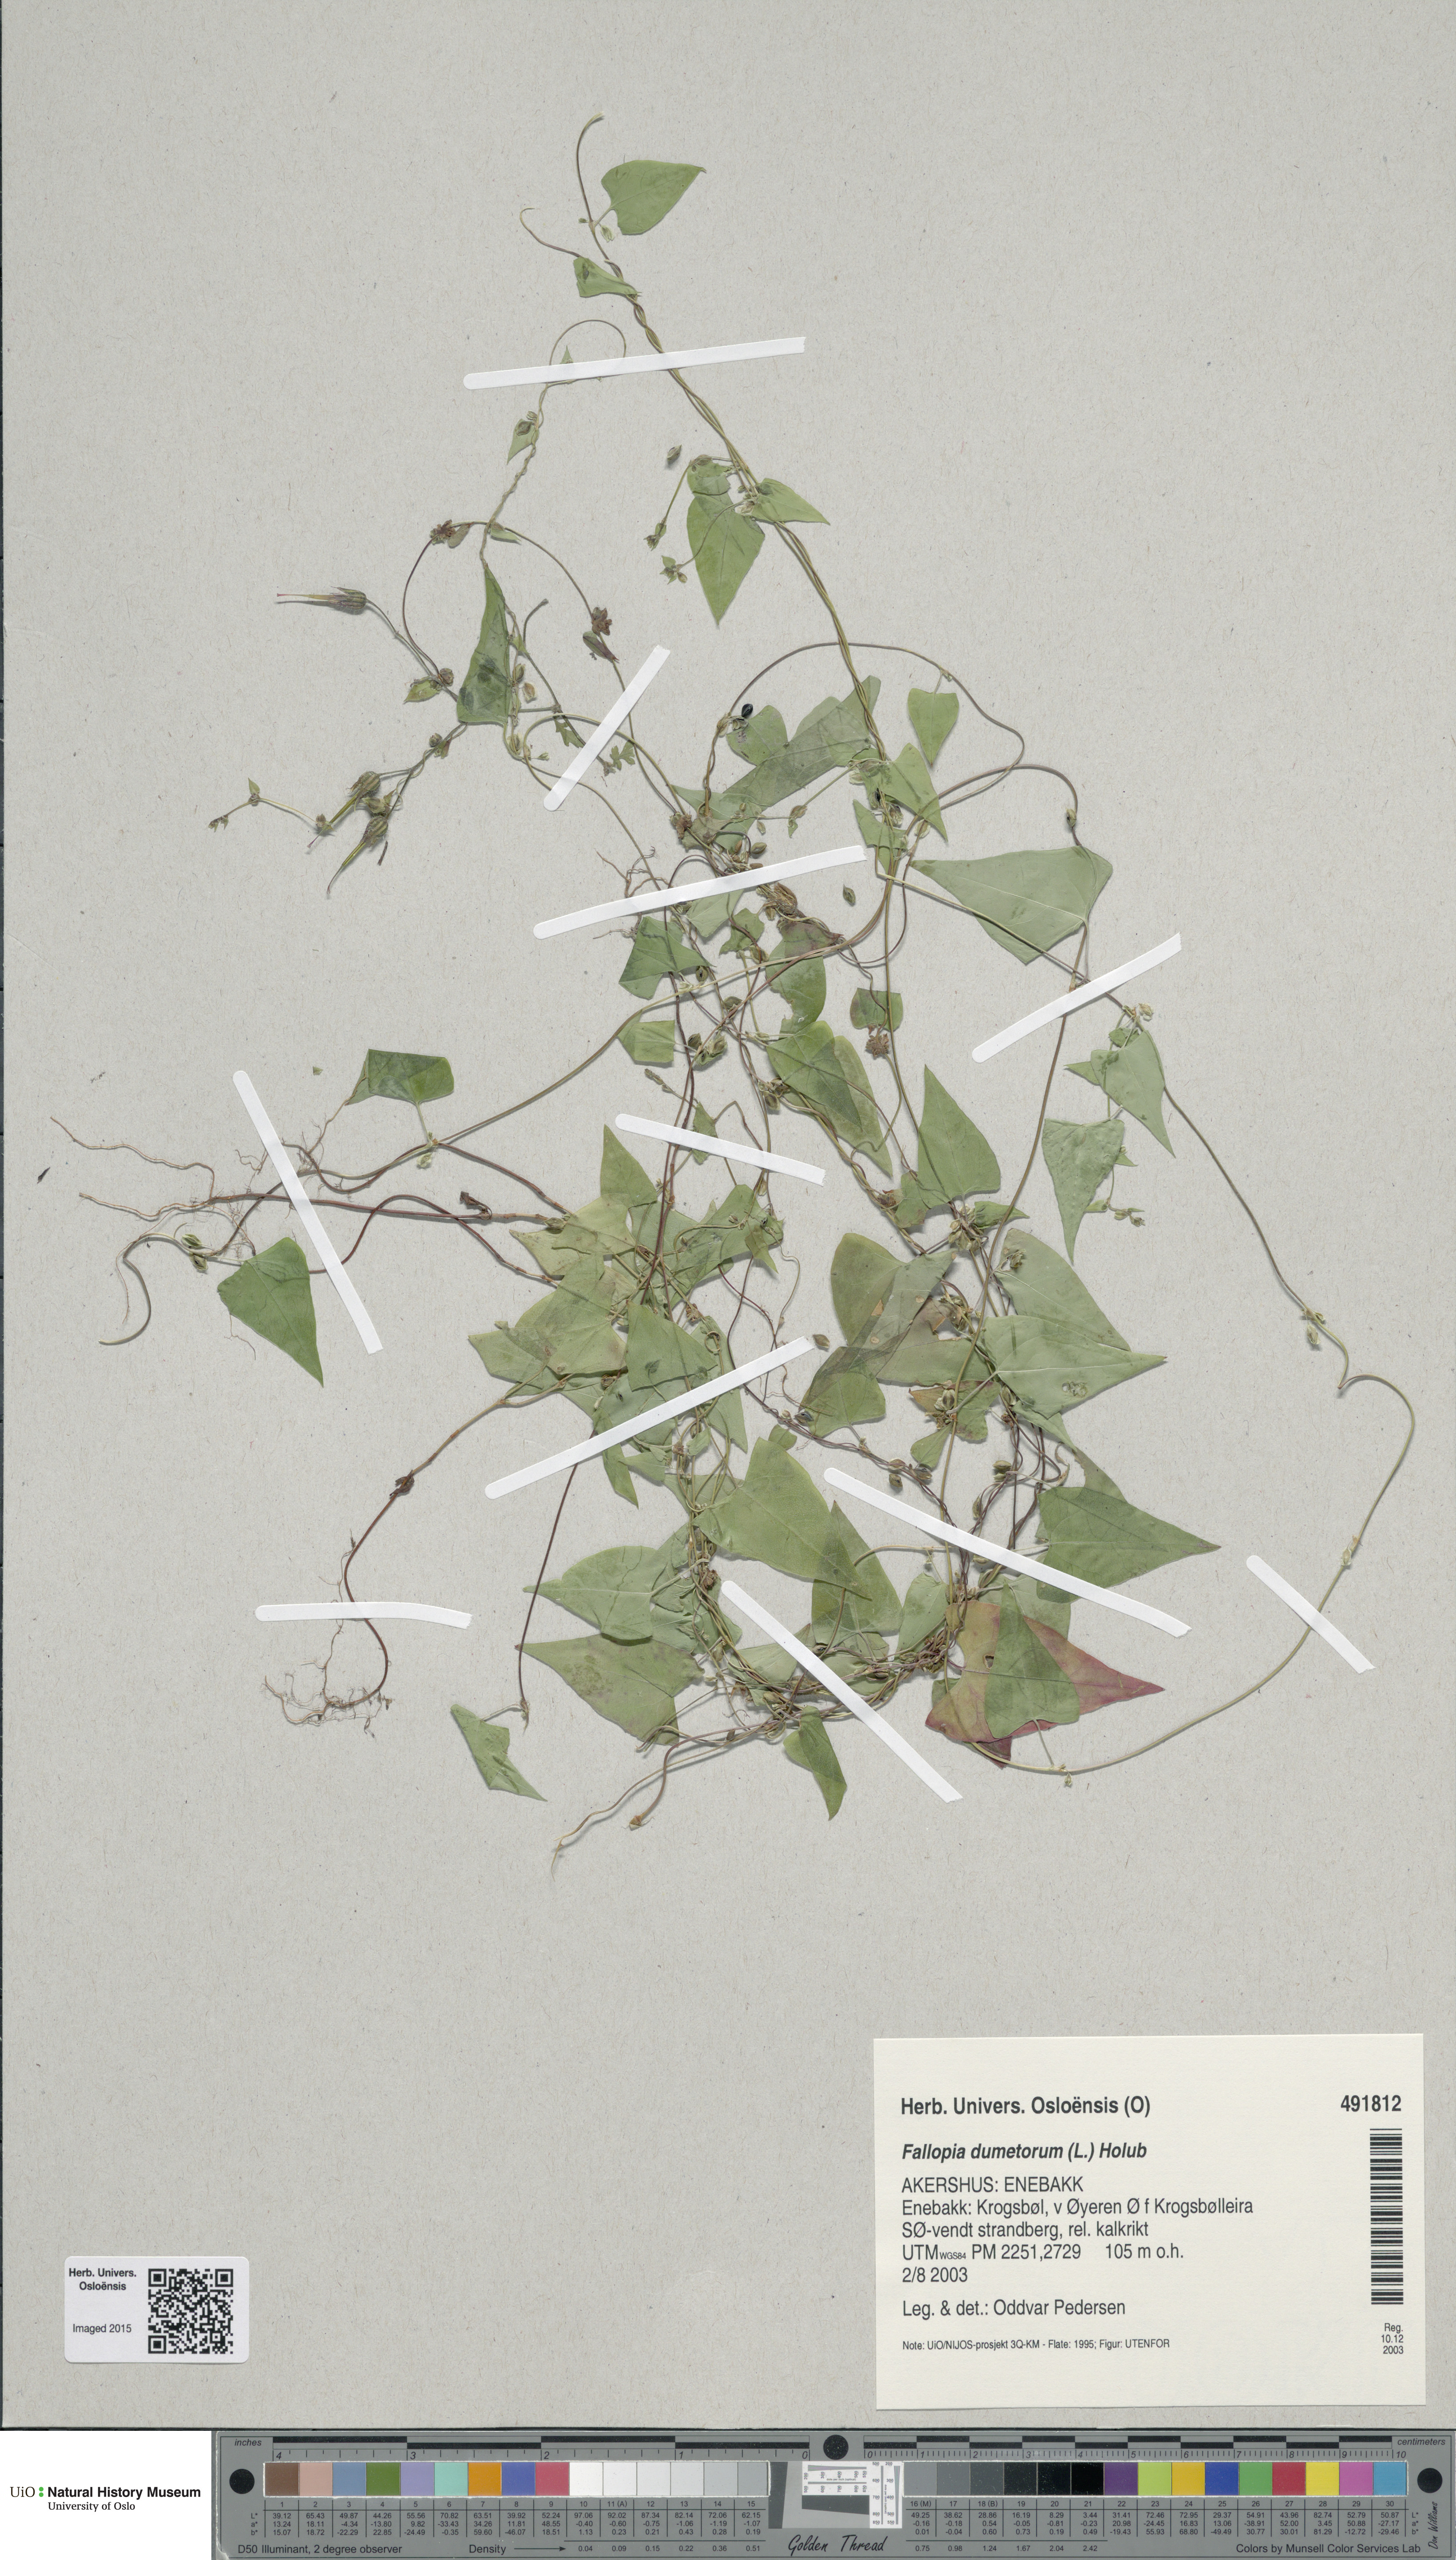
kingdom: Plantae
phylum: Tracheophyta
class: Magnoliopsida
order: Caryophyllales
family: Polygonaceae
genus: Fallopia
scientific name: Fallopia dumetorum
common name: Copse-bindweed
